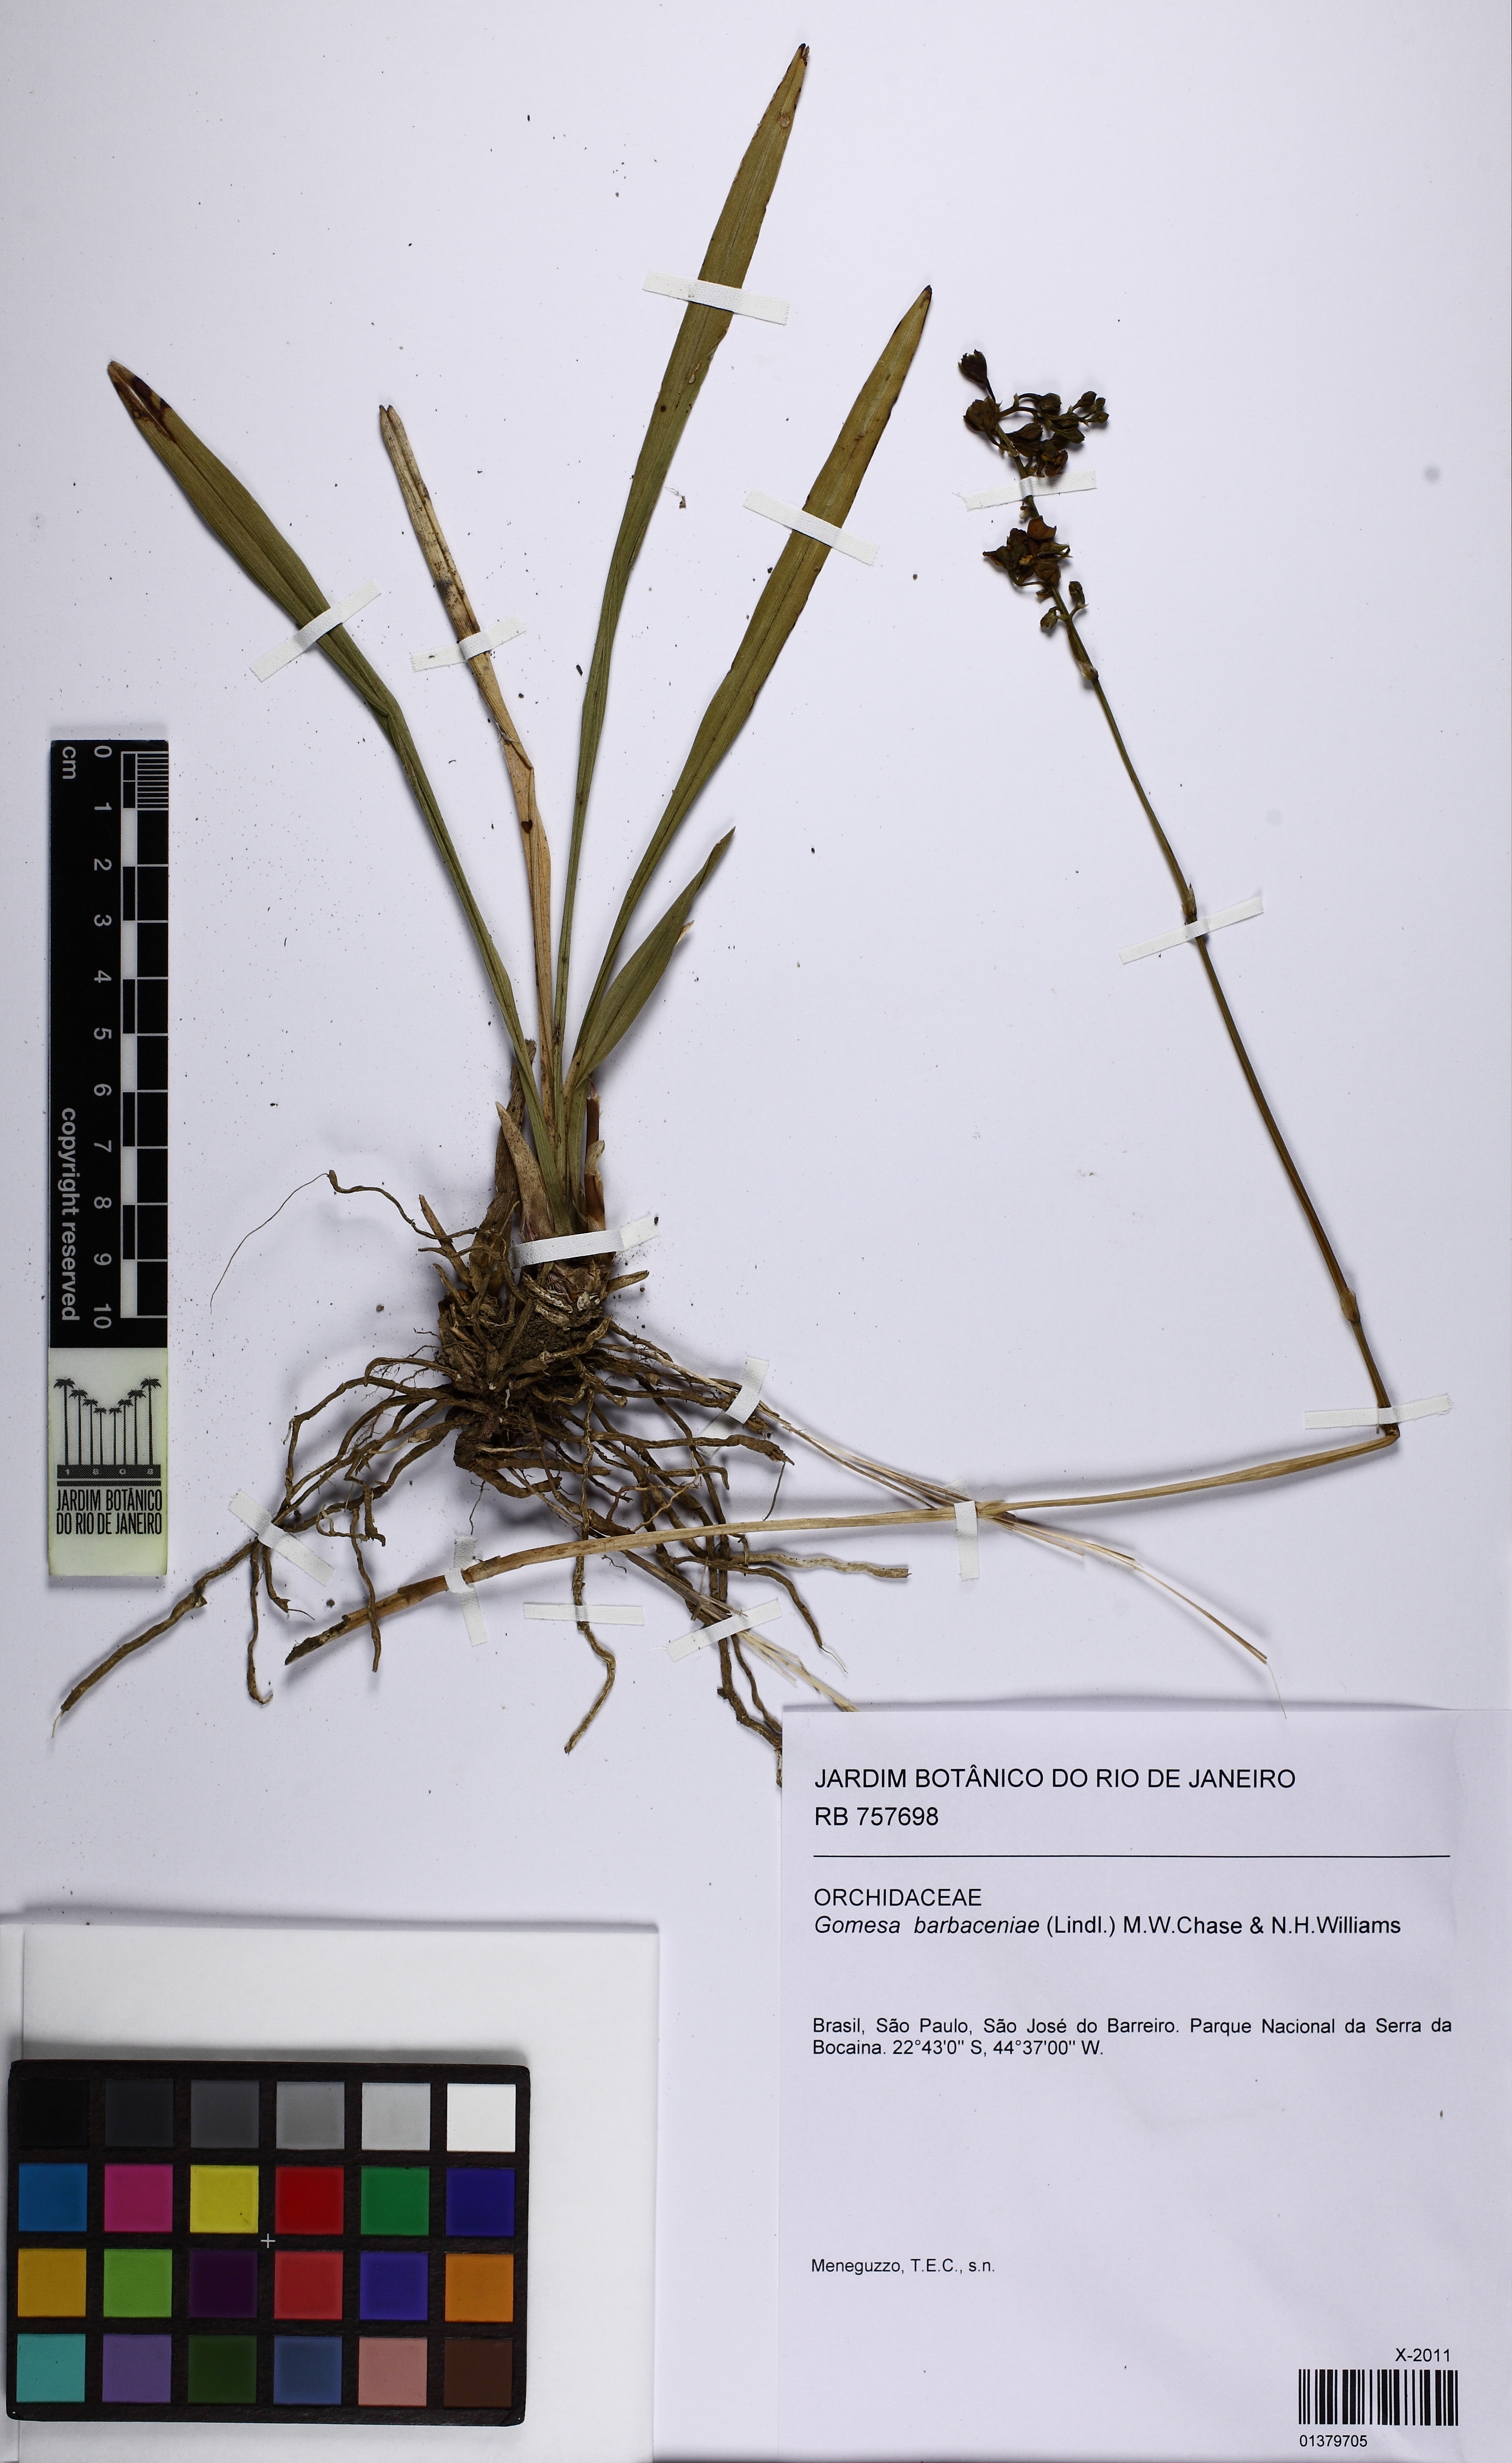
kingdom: Plantae
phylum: Tracheophyta
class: Liliopsida
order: Asparagales
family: Orchidaceae
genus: Gomesa
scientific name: Gomesa barbaceniae
